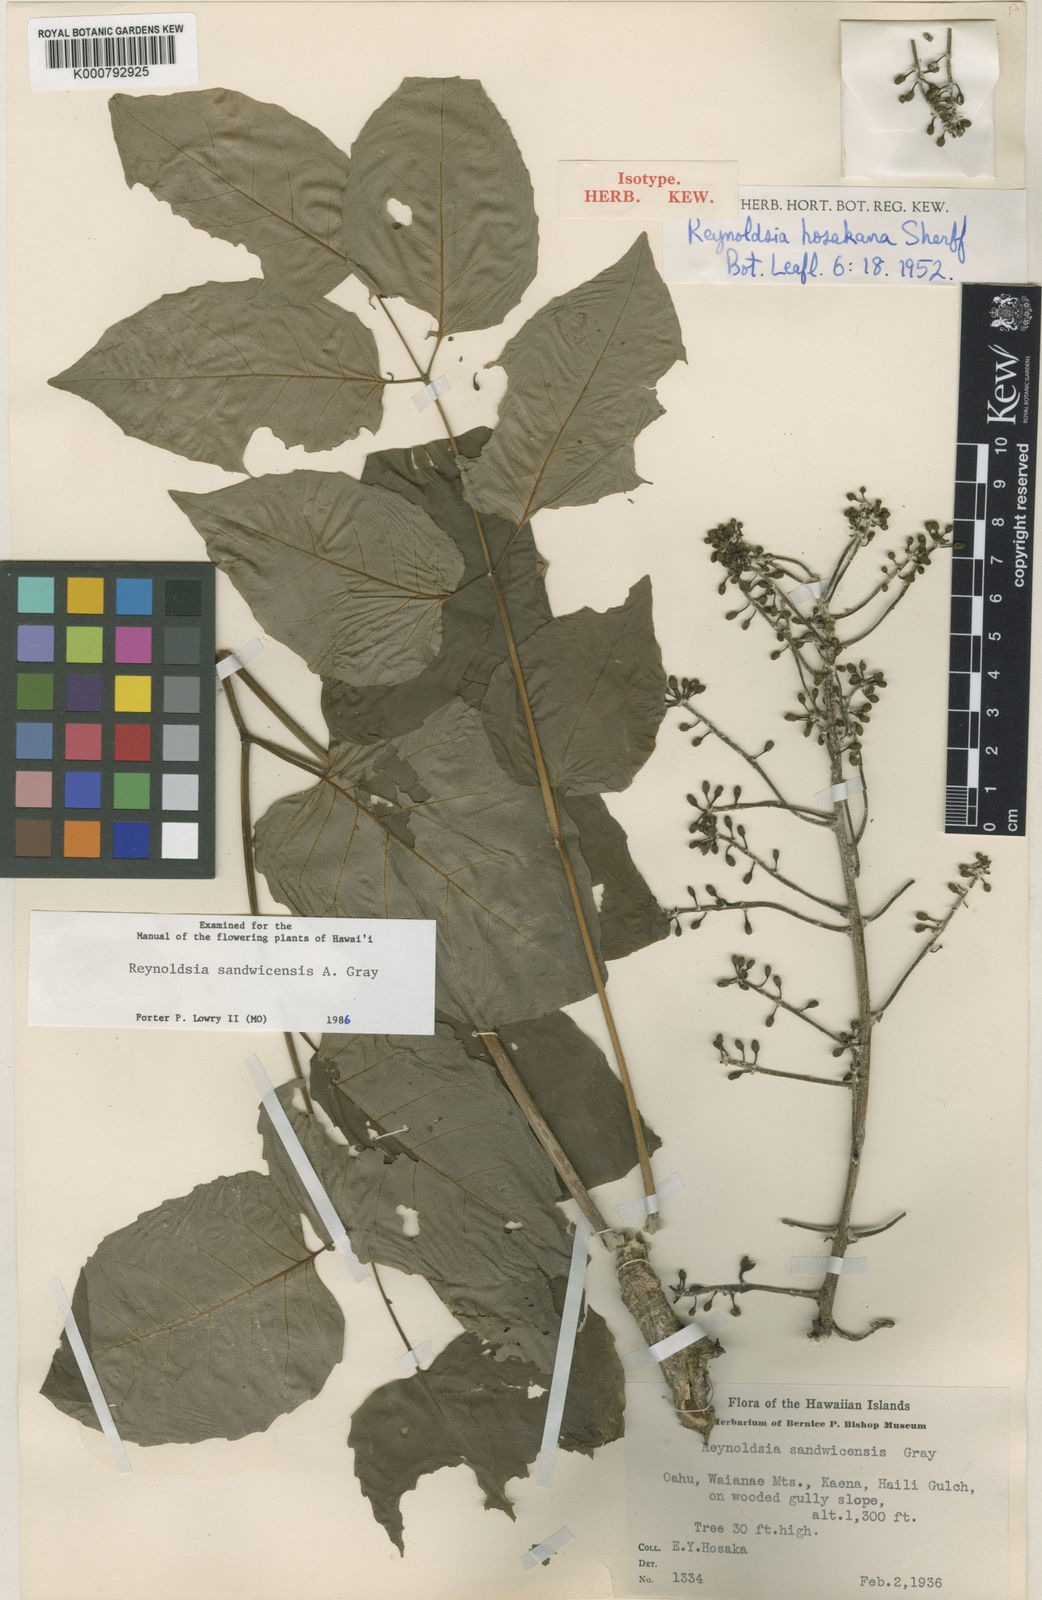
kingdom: Plantae
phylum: Tracheophyta
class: Magnoliopsida
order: Apiales
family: Araliaceae
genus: Polyscias
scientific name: Polyscias sandwicensis
